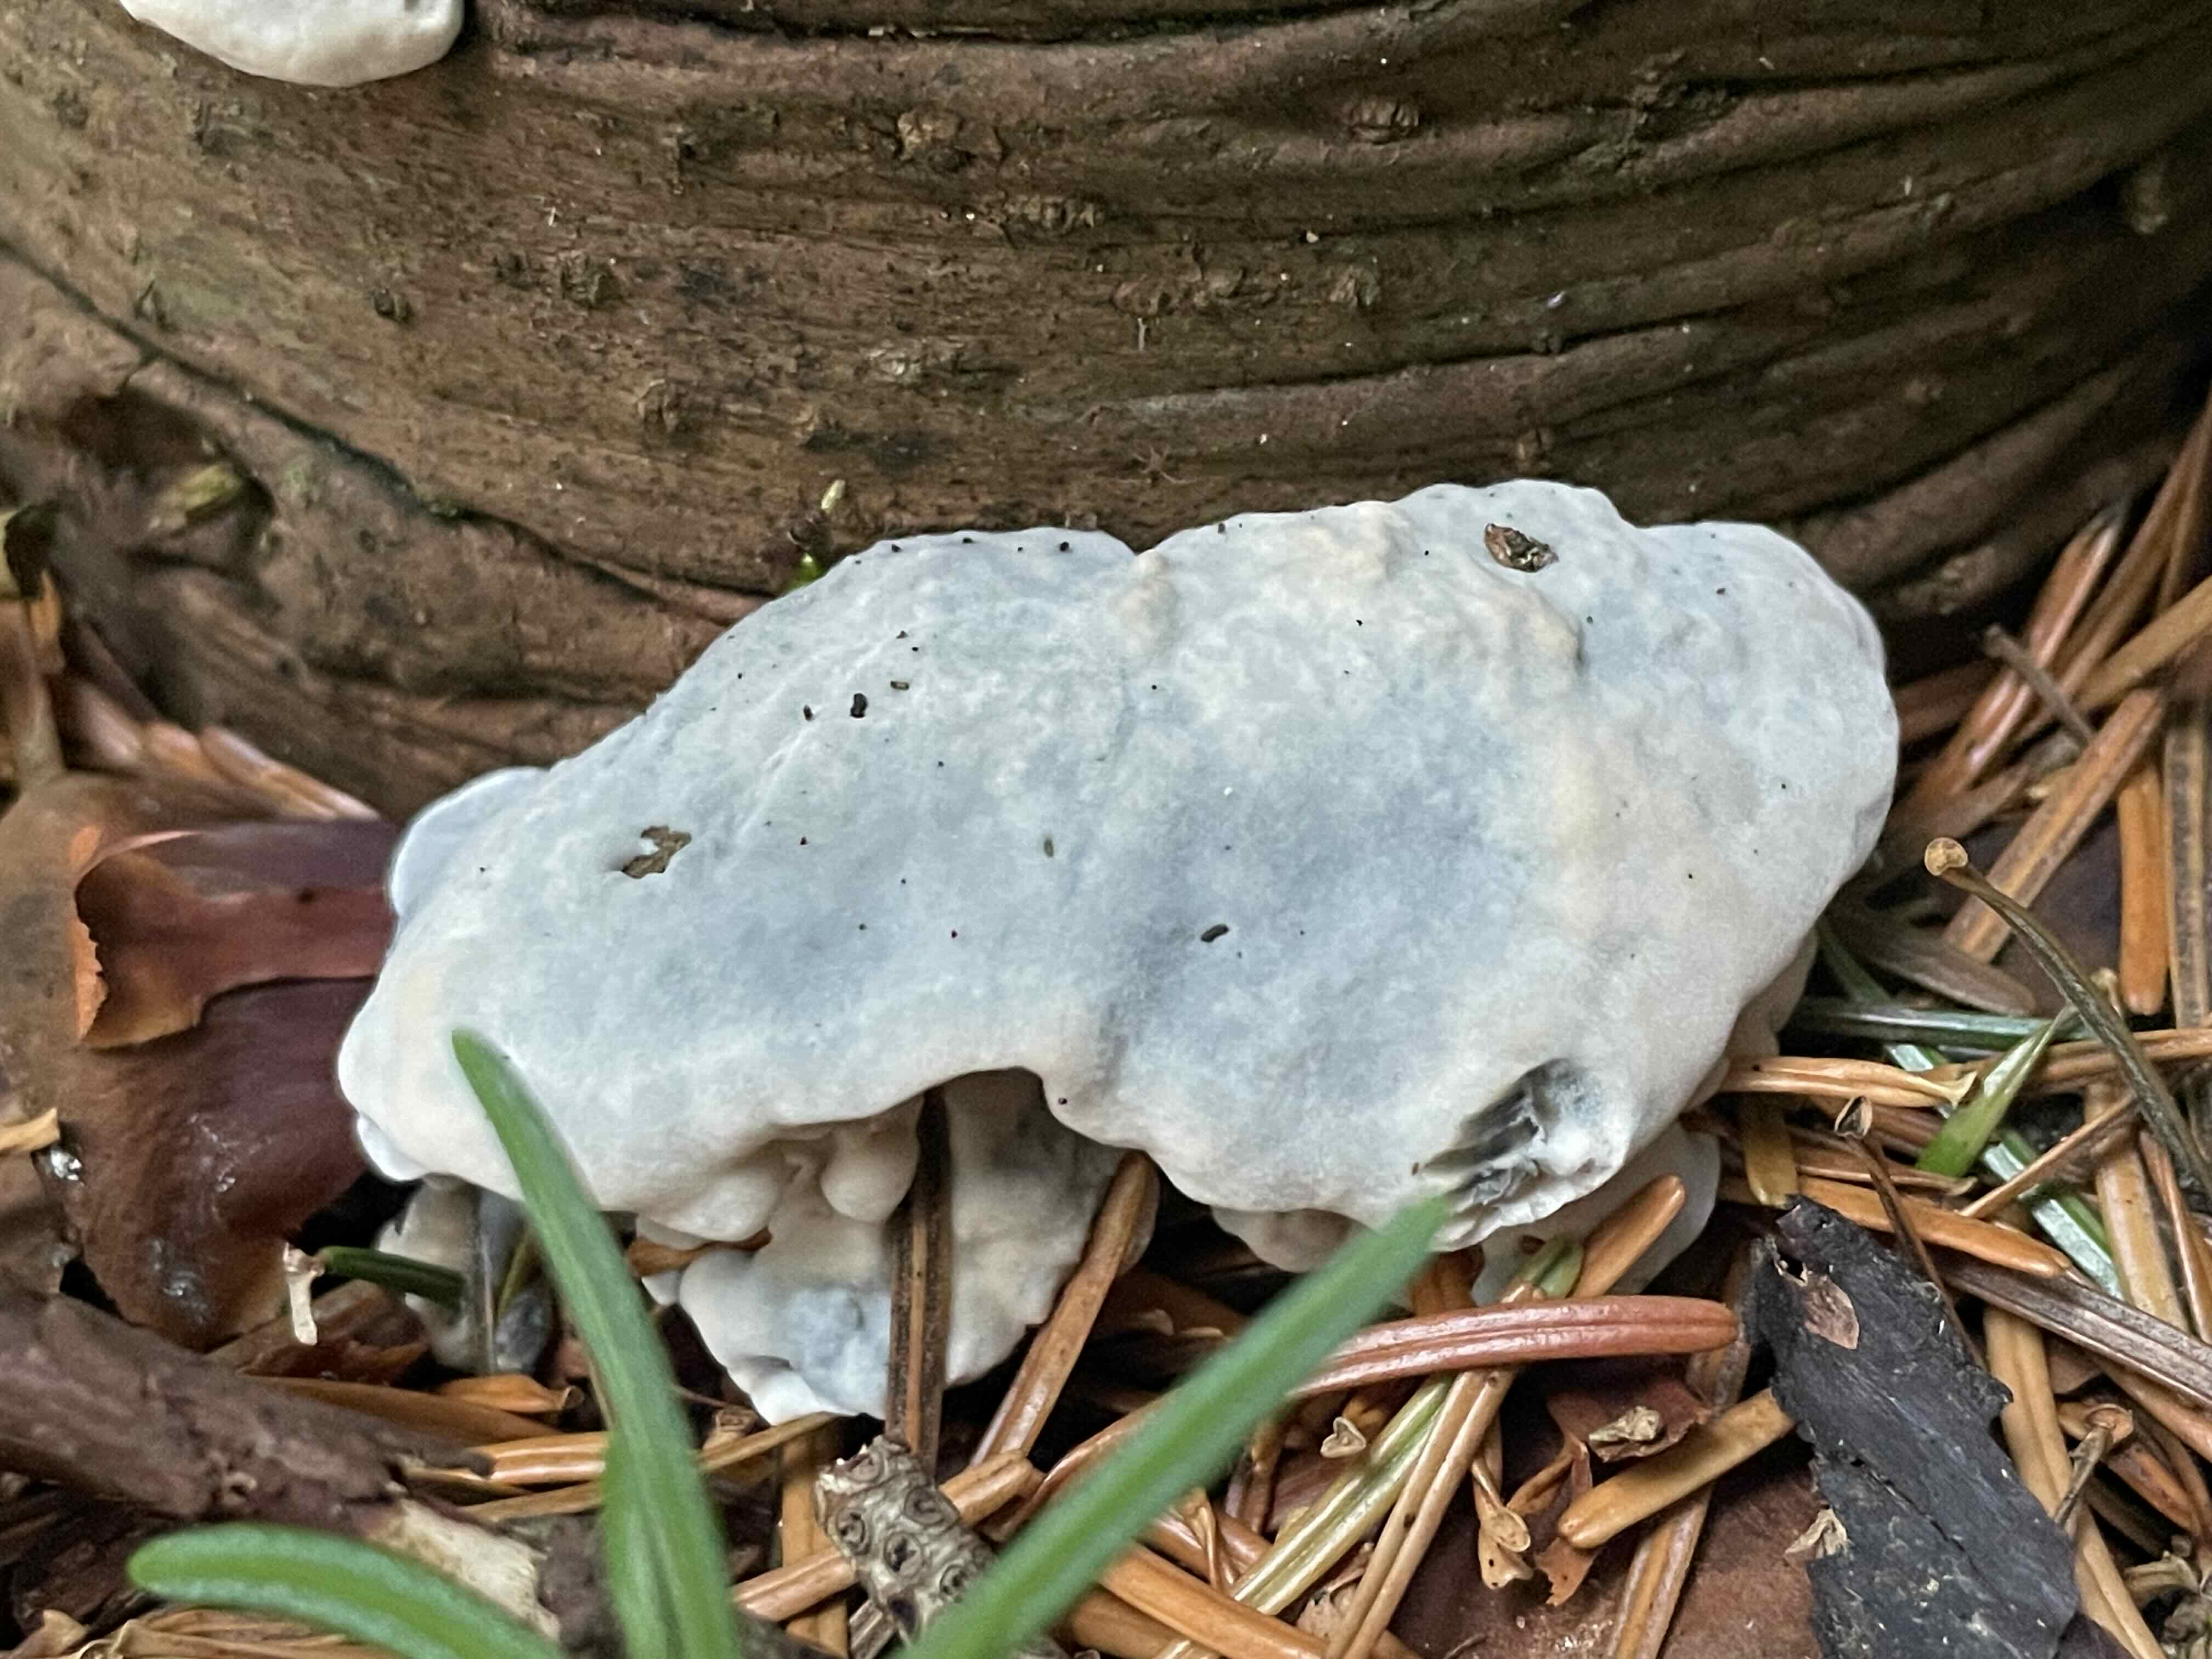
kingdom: Fungi
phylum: Basidiomycota
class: Agaricomycetes
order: Polyporales
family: Polyporaceae
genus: Cyanosporus
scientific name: Cyanosporus caesius
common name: blålig kødporesvamp
